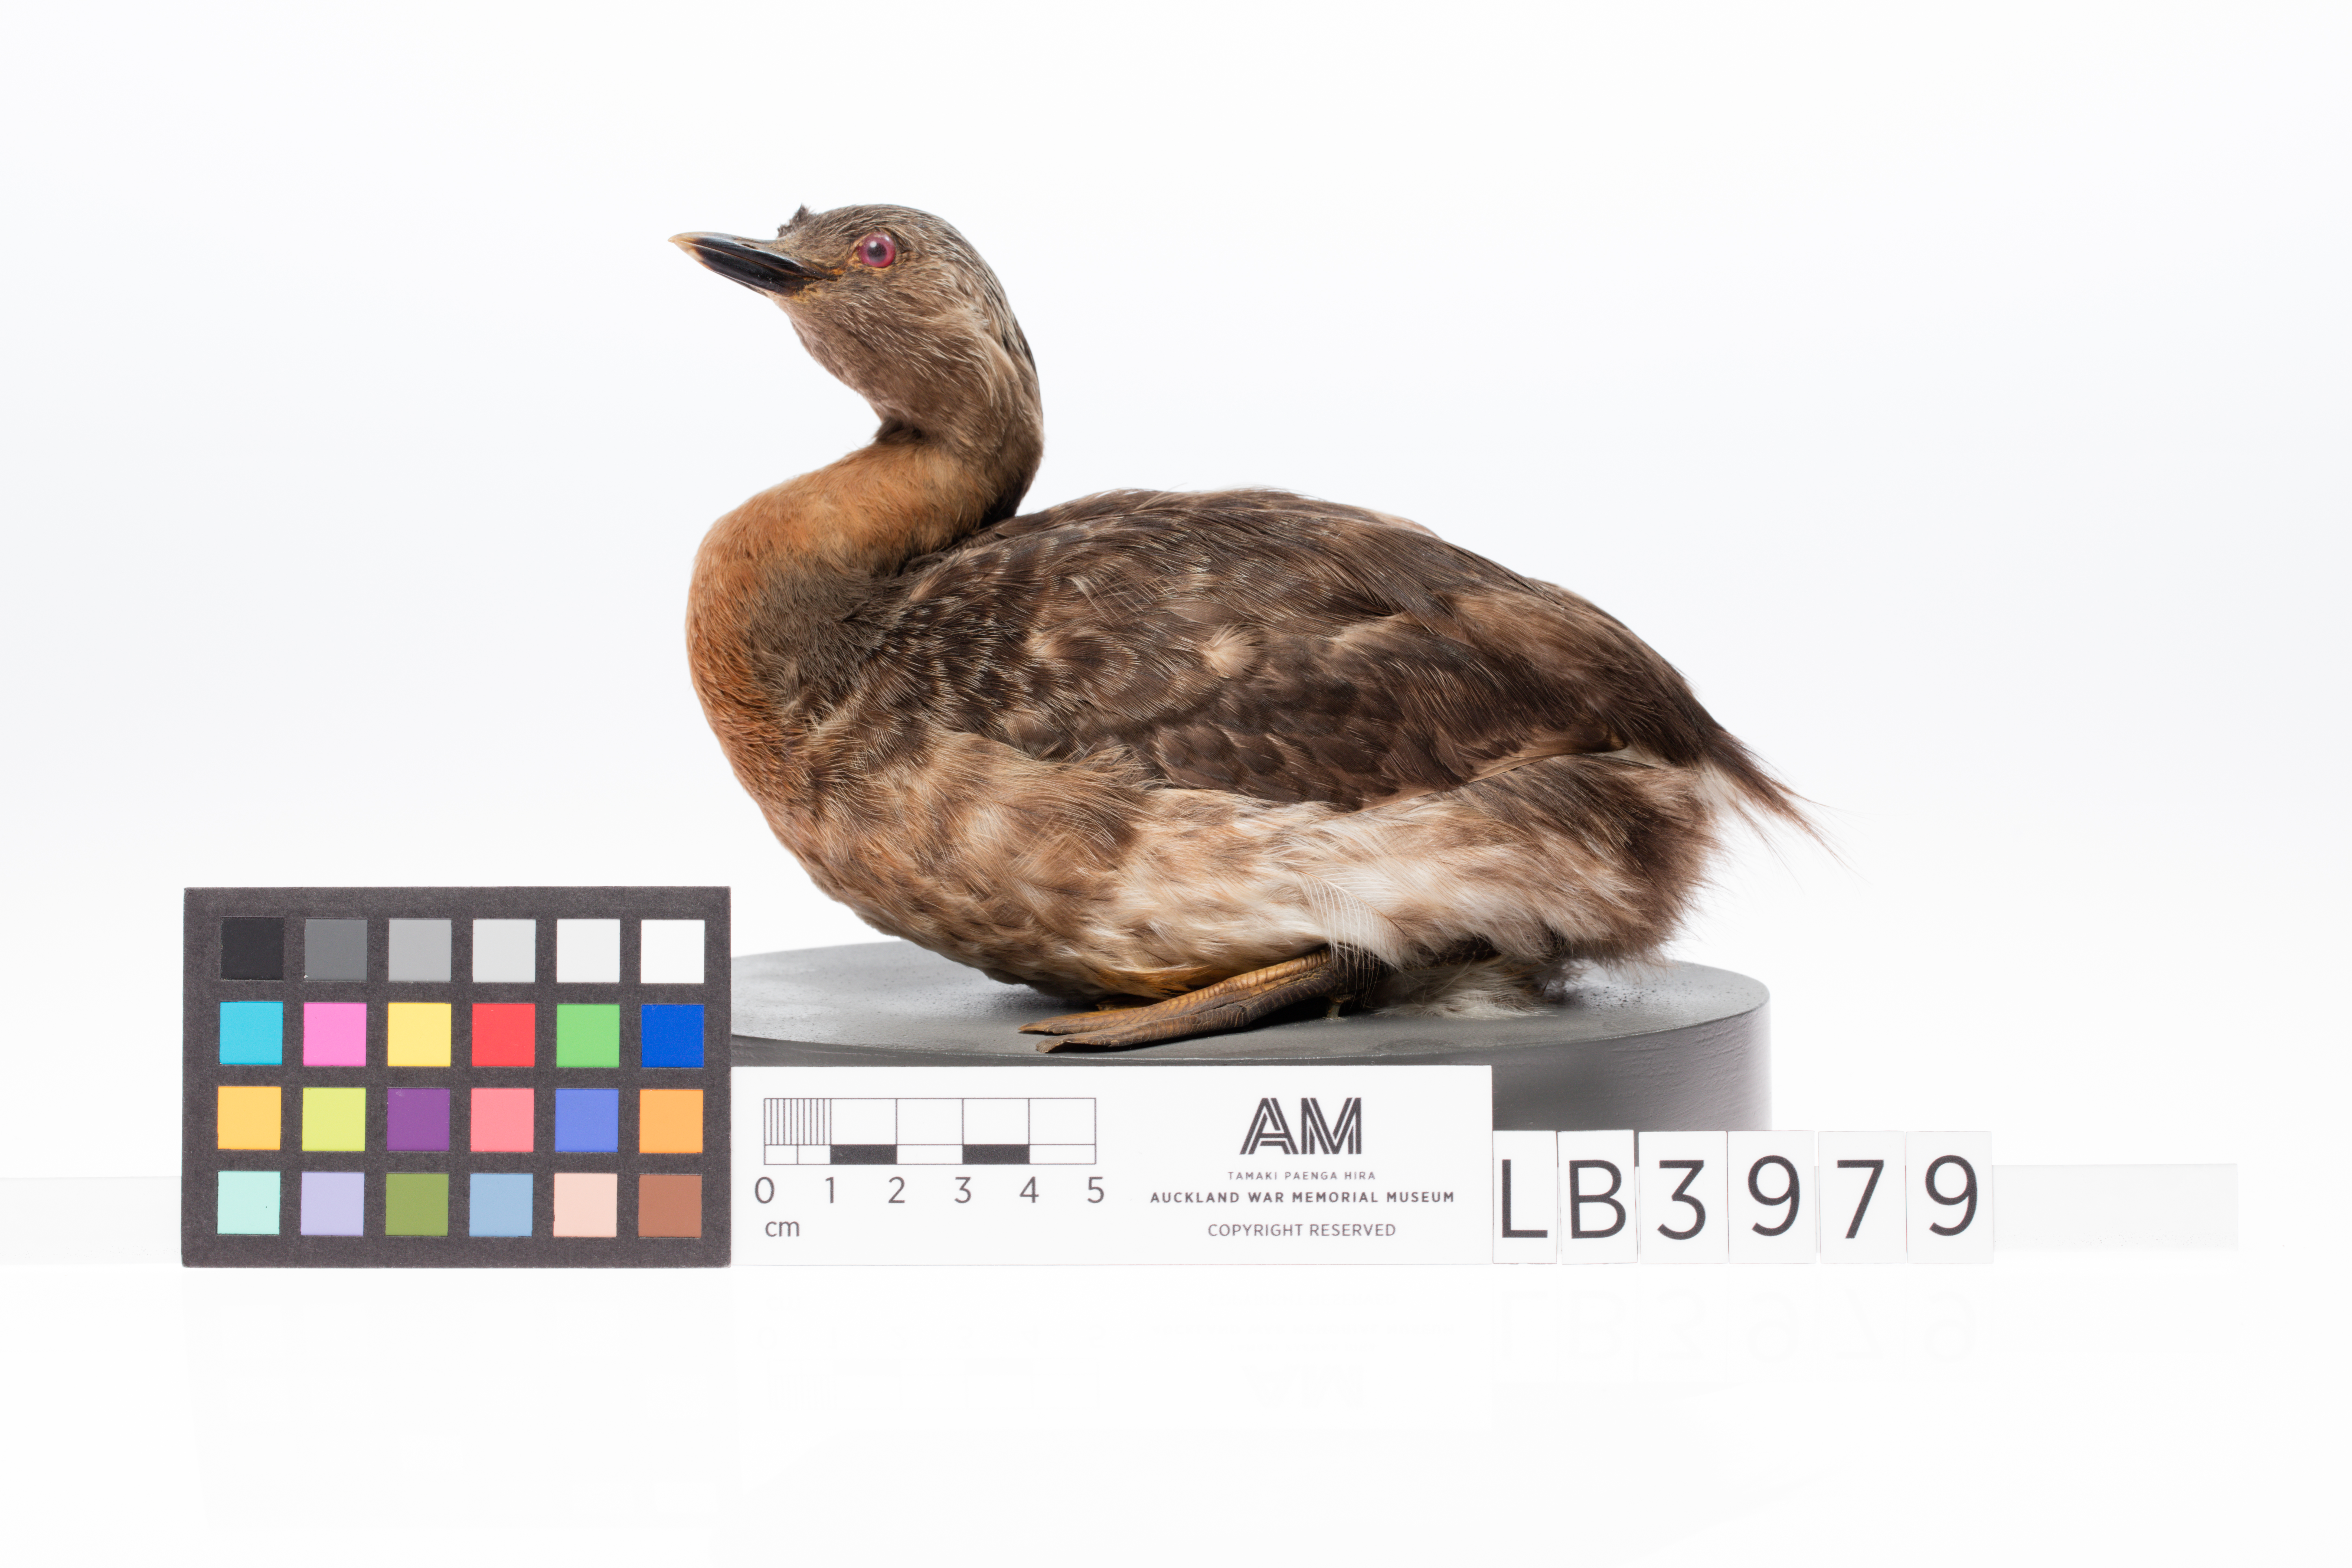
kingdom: Animalia
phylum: Chordata
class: Aves
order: Podicipediformes
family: Podicipedidae
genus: Poliocephalus
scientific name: Poliocephalus rufopectus
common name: New zealand grebe
